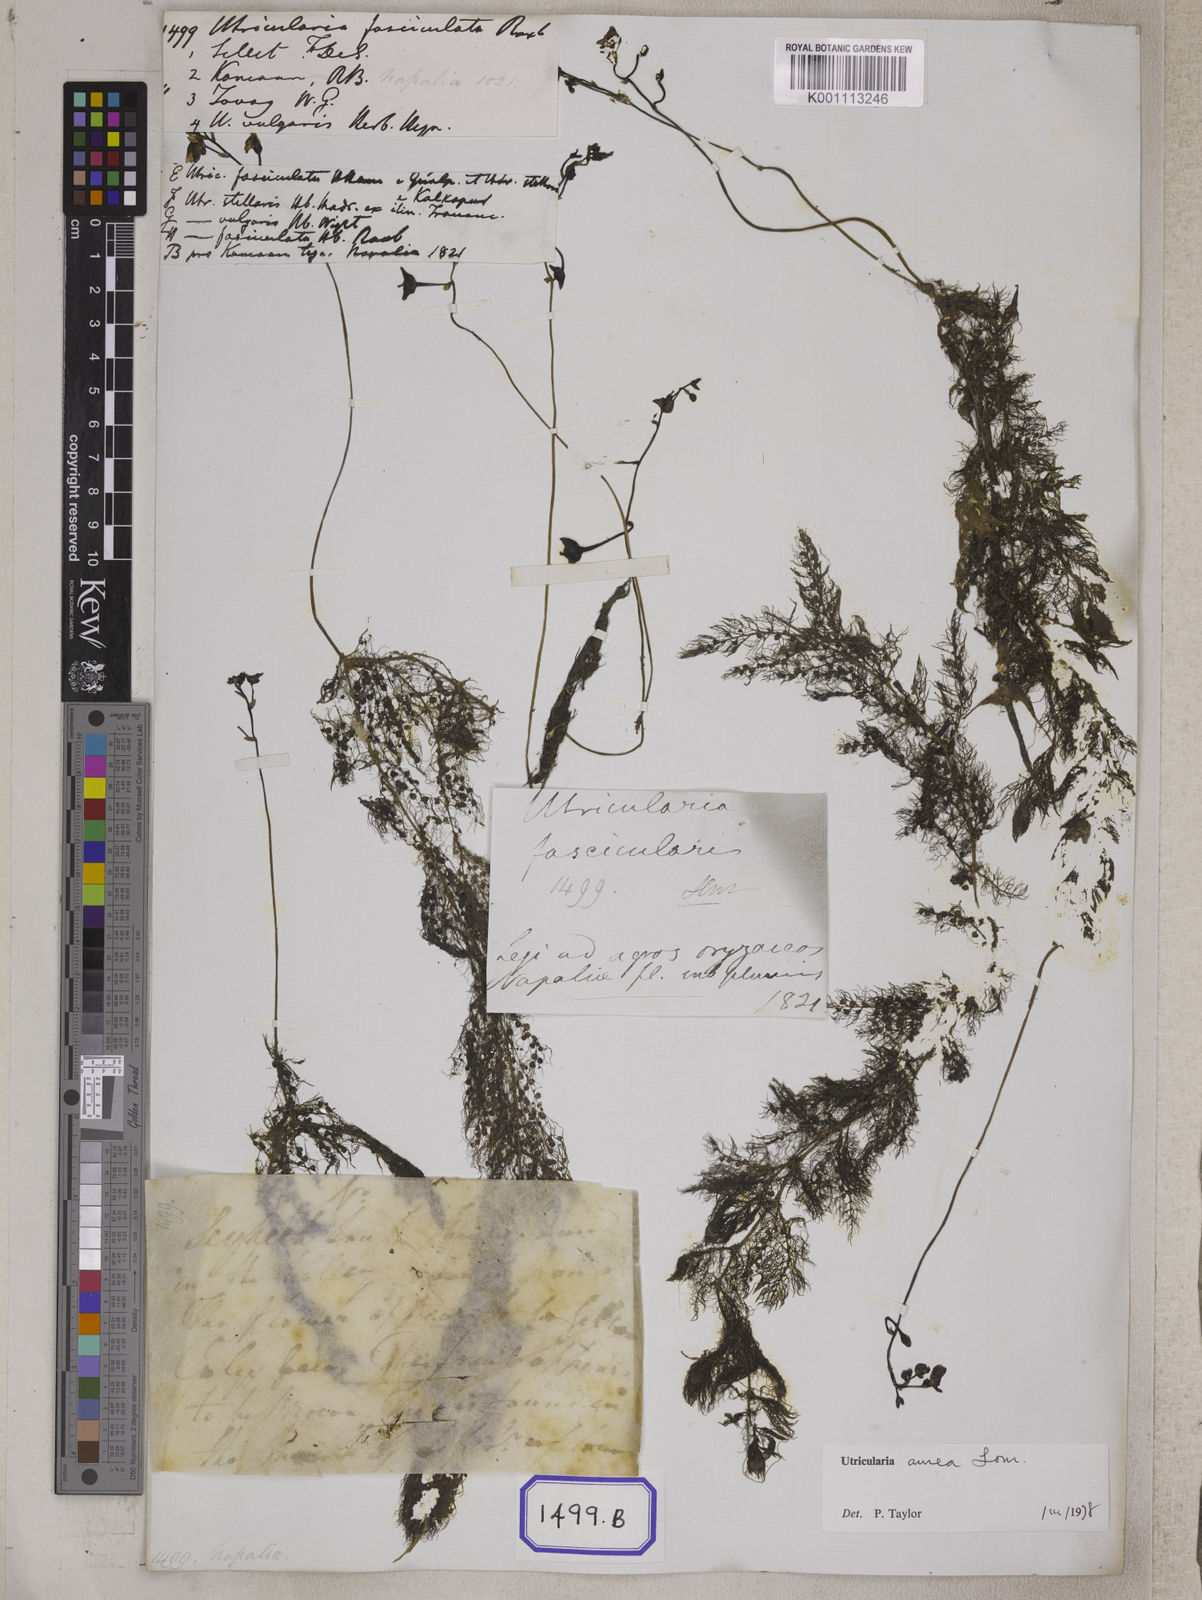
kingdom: Plantae
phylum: Tracheophyta
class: Magnoliopsida
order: Lamiales
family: Lentibulariaceae
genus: Utricularia
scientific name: Utricularia aurea
